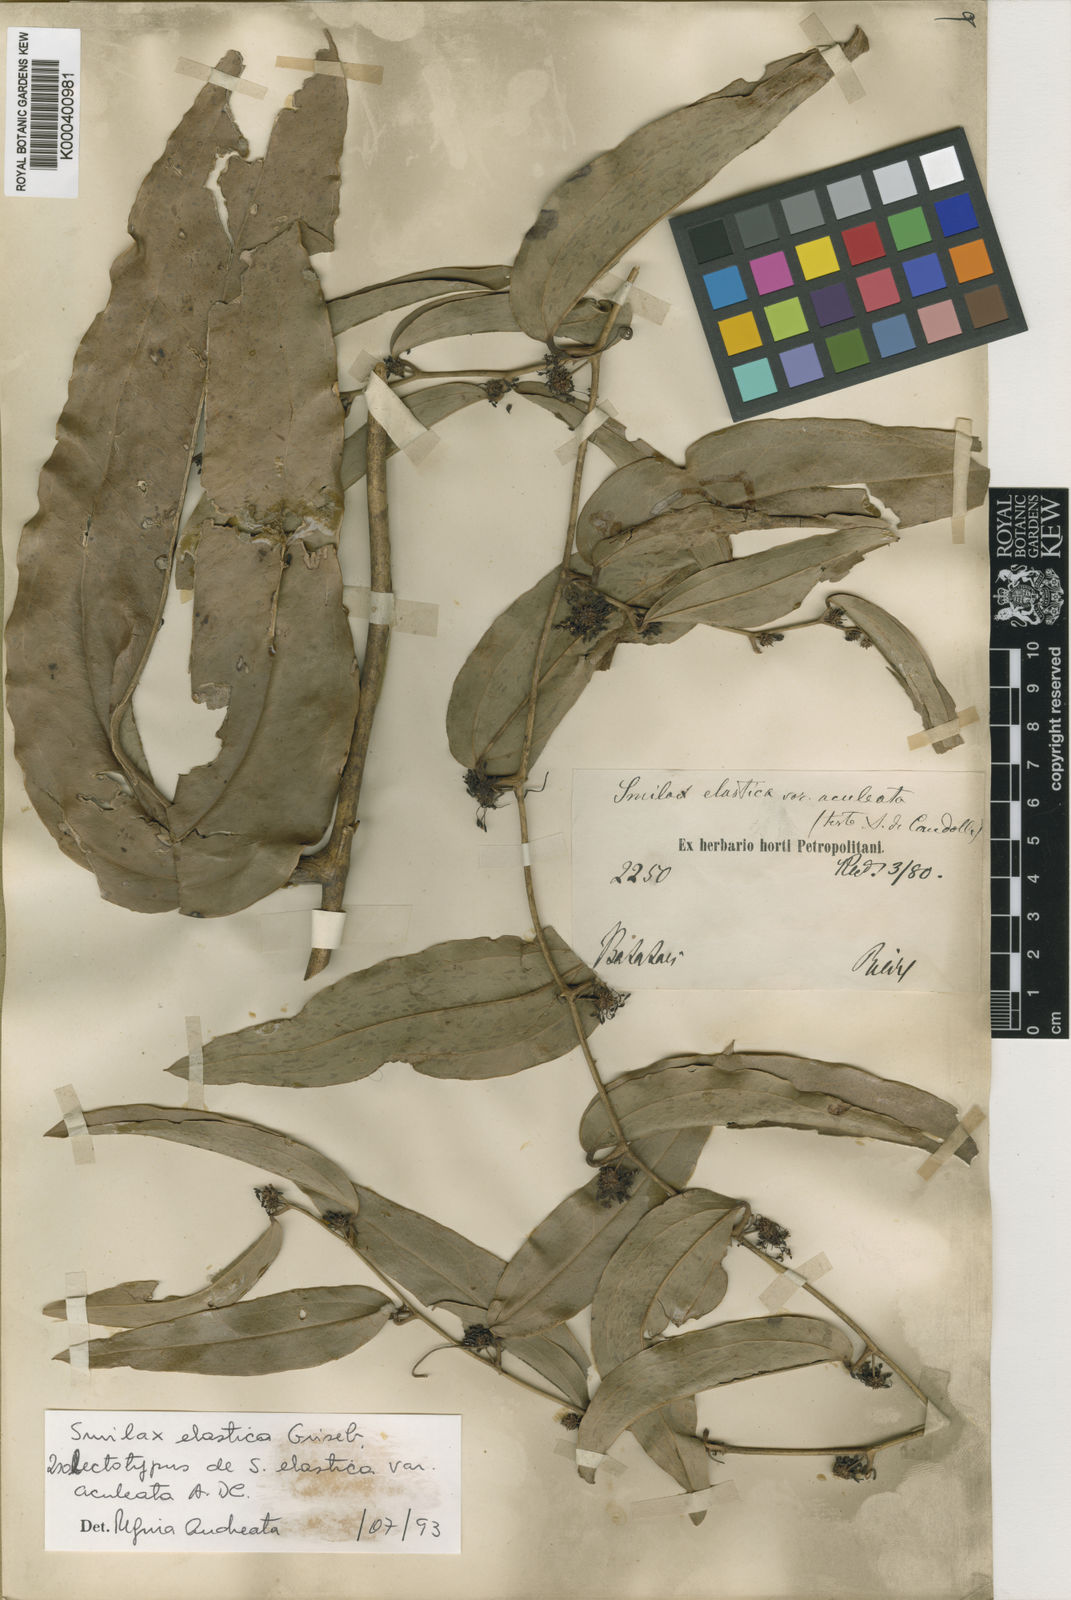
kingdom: Plantae
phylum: Tracheophyta
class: Liliopsida
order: Liliales
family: Smilacaceae
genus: Smilax
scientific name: Smilax elastica
